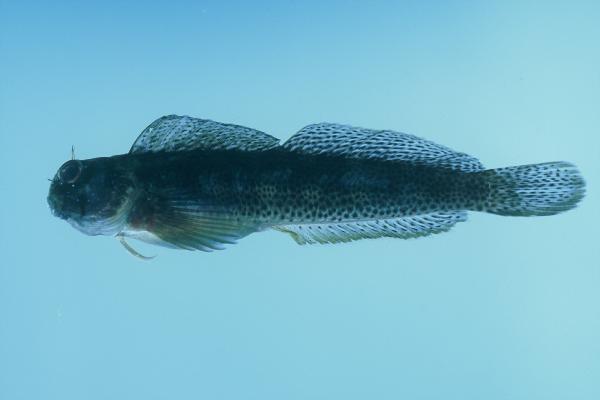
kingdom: Animalia
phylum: Chordata
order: Perciformes
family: Blenniidae
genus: Istiblennius
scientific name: Istiblennius bellus
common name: Beautiful rockskipper
